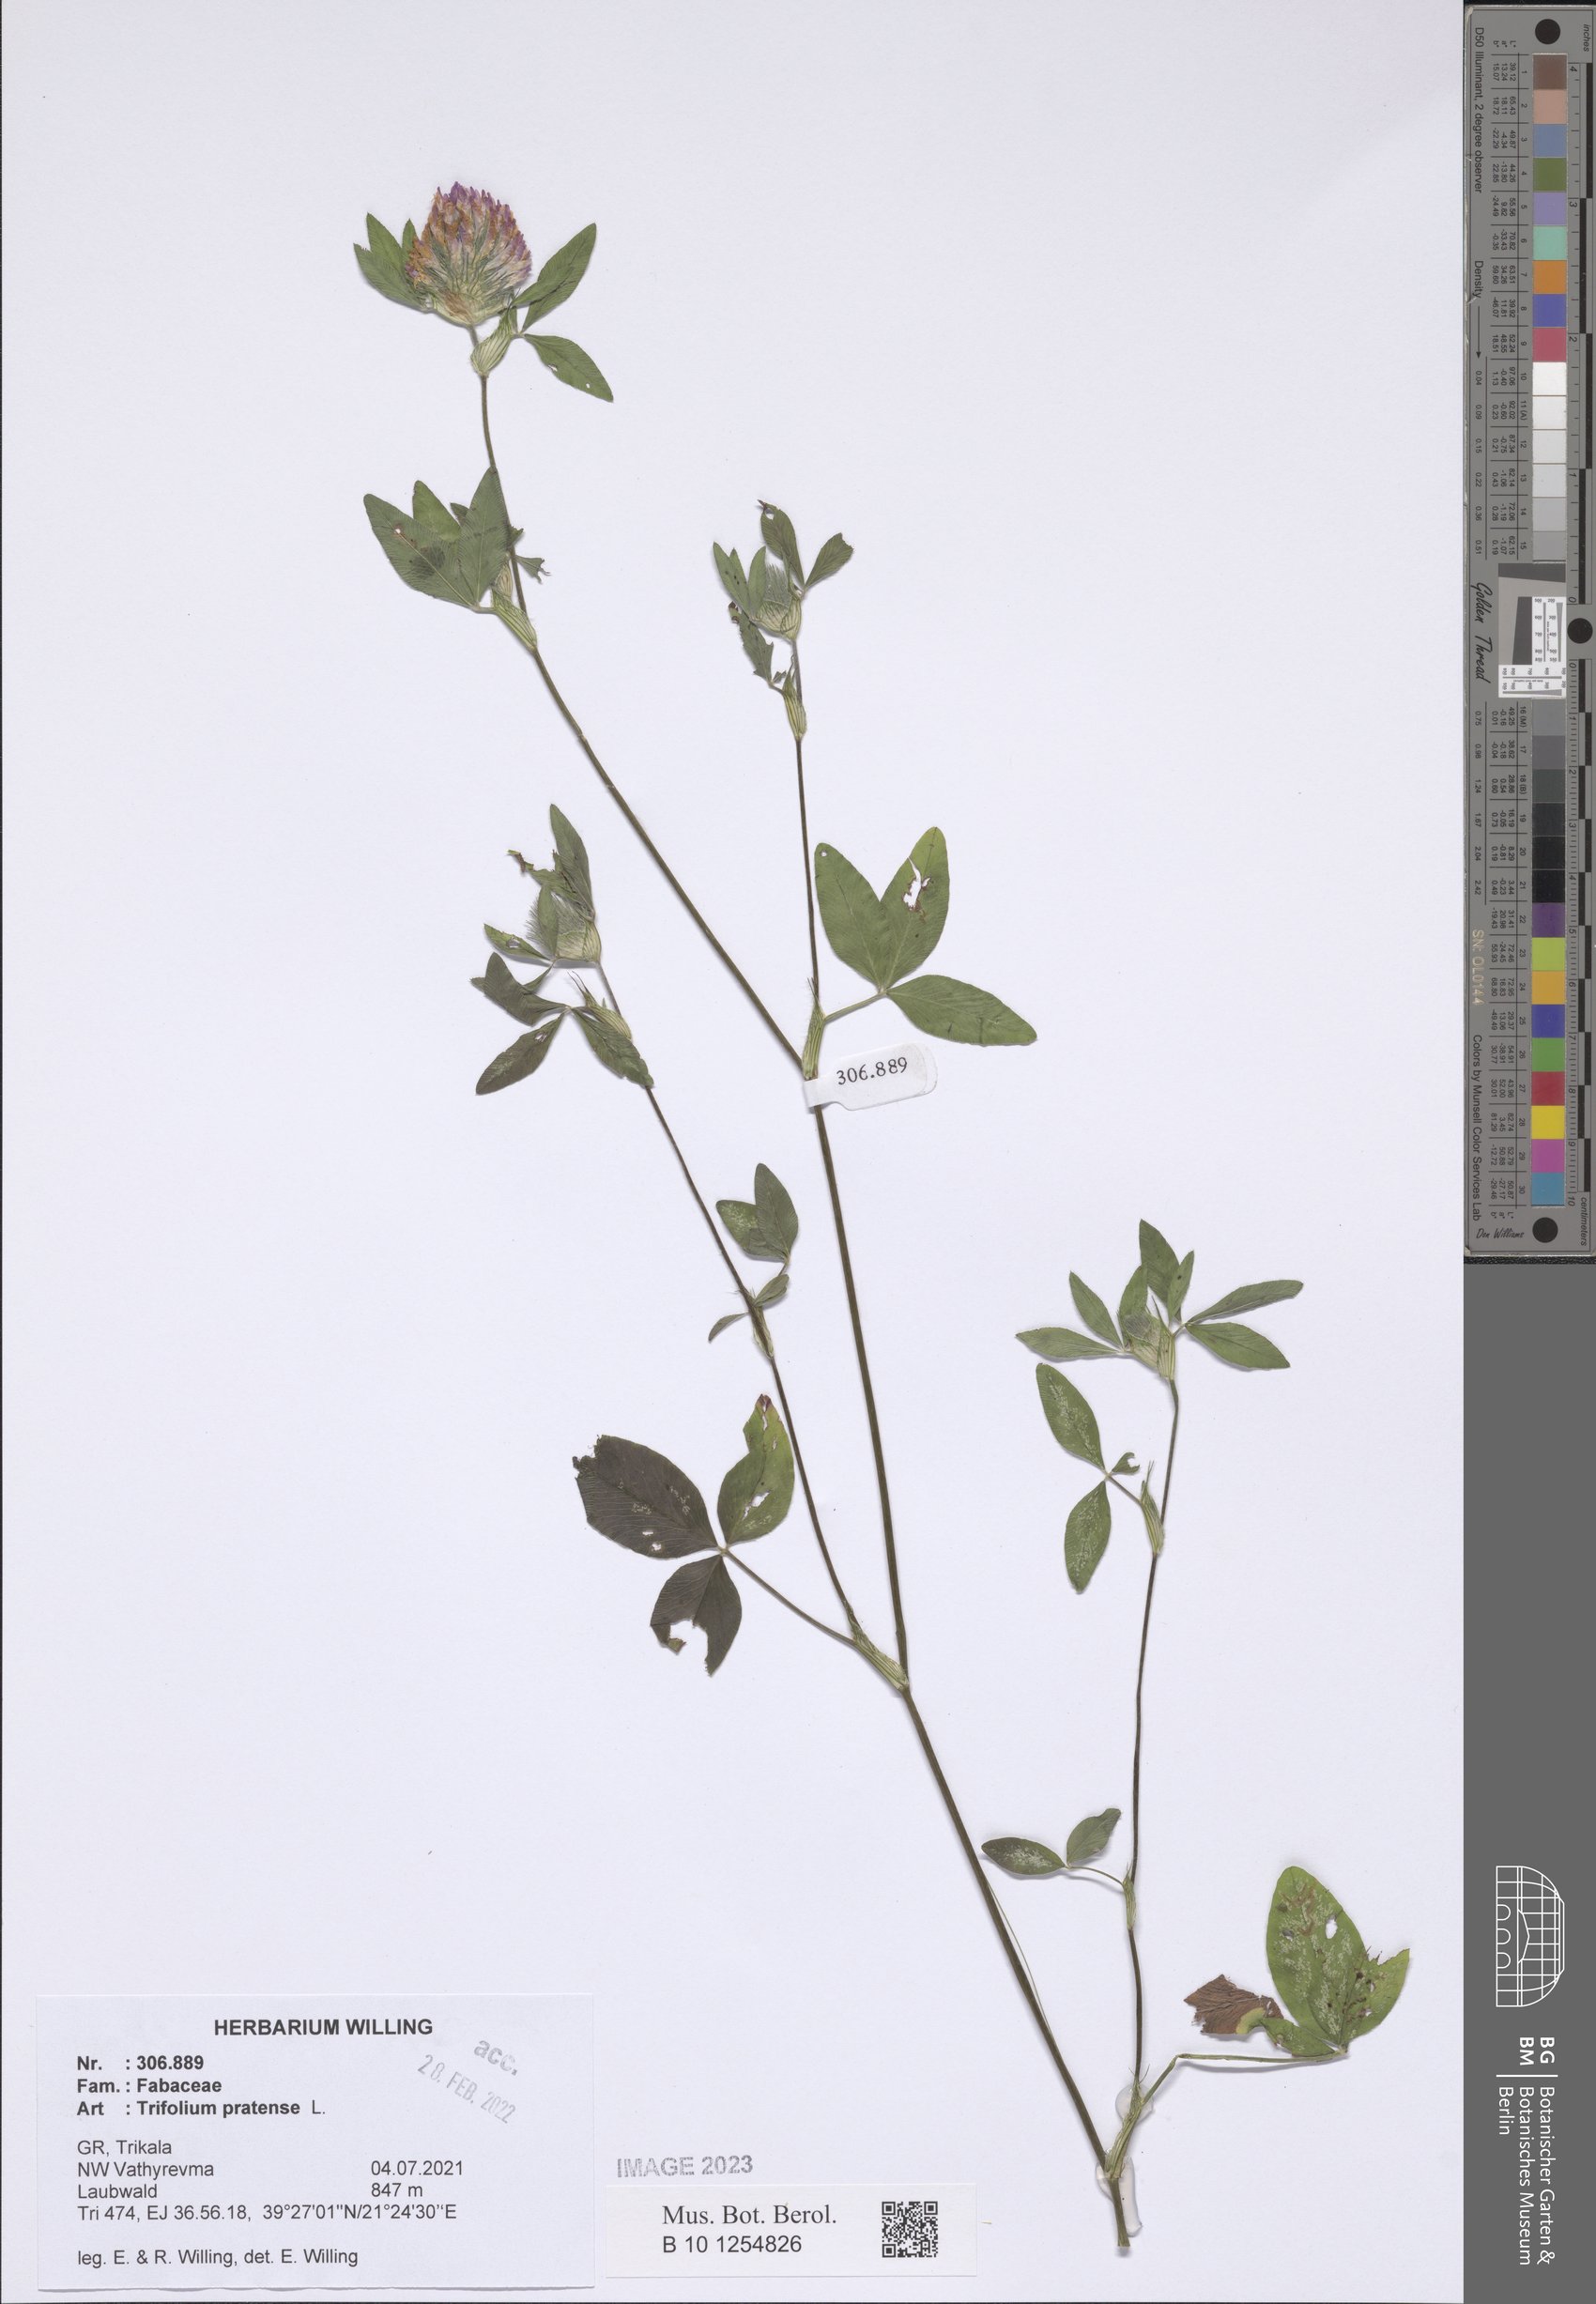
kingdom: Plantae
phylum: Tracheophyta
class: Magnoliopsida
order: Fabales
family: Fabaceae
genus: Trifolium
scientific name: Trifolium pratense
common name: Red clover
